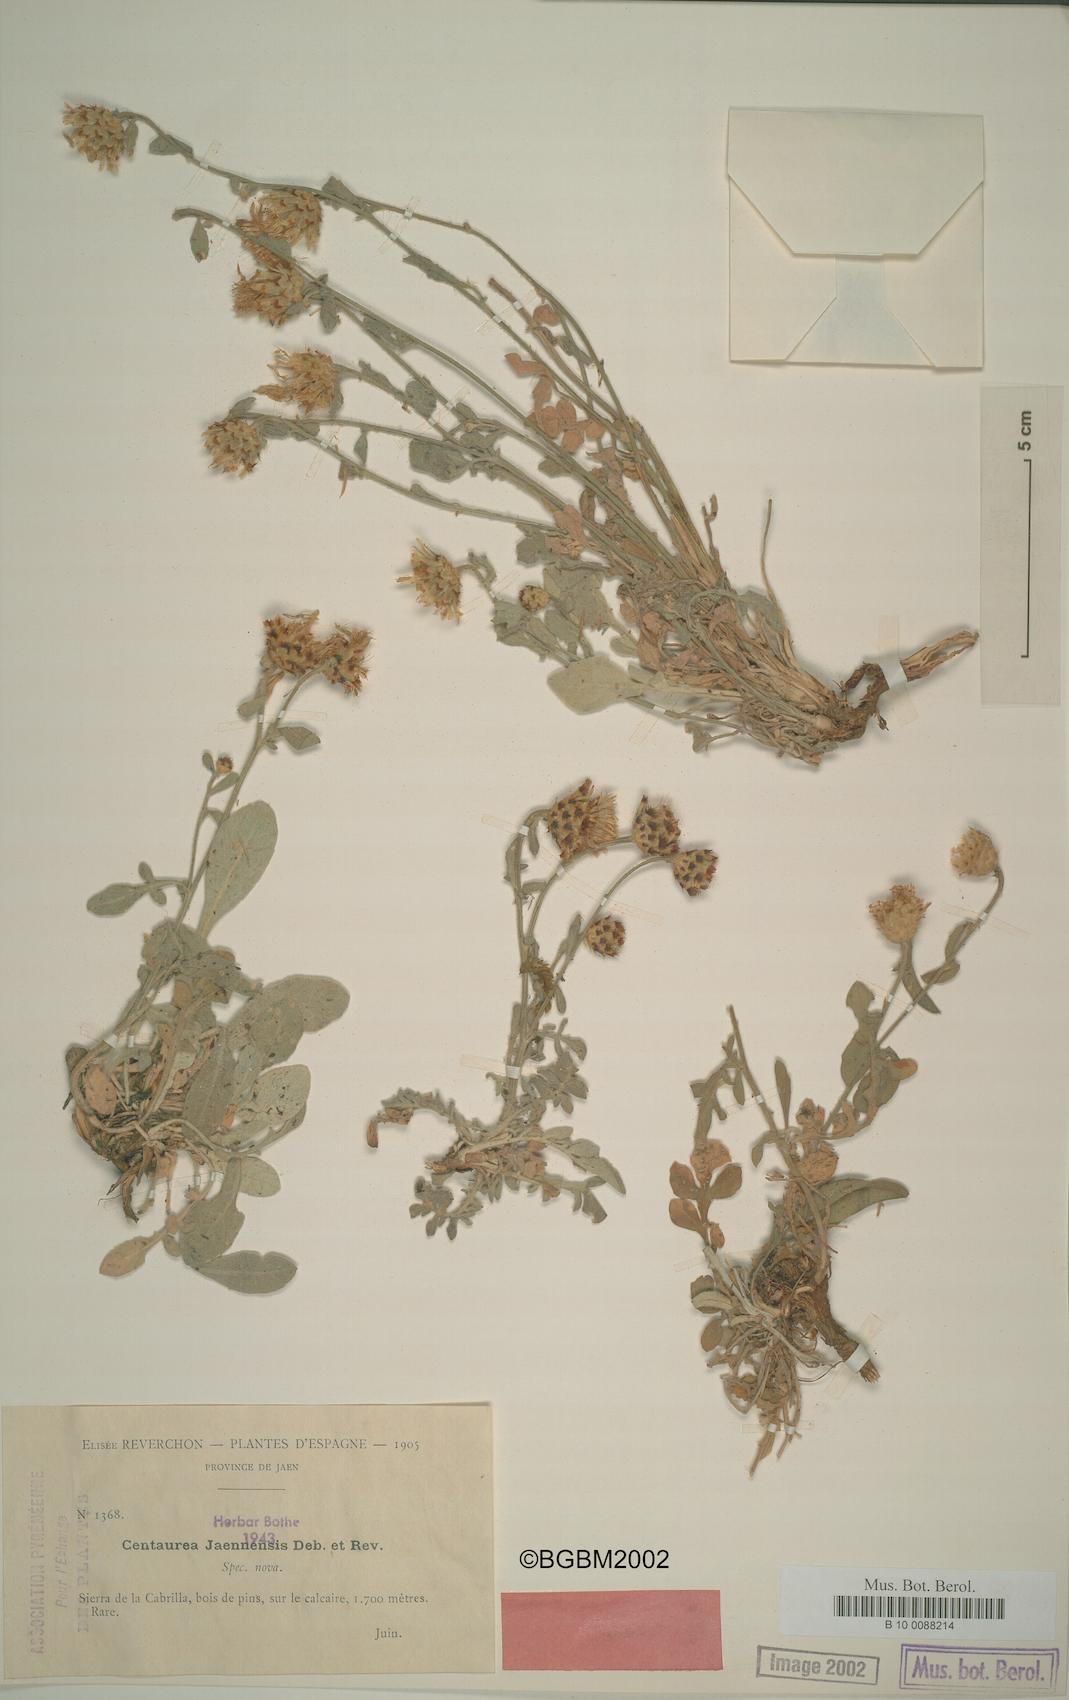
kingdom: Plantae
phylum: Tracheophyta
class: Magnoliopsida
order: Asterales
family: Asteraceae
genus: Centaurea
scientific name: Centaurea jaennensis
